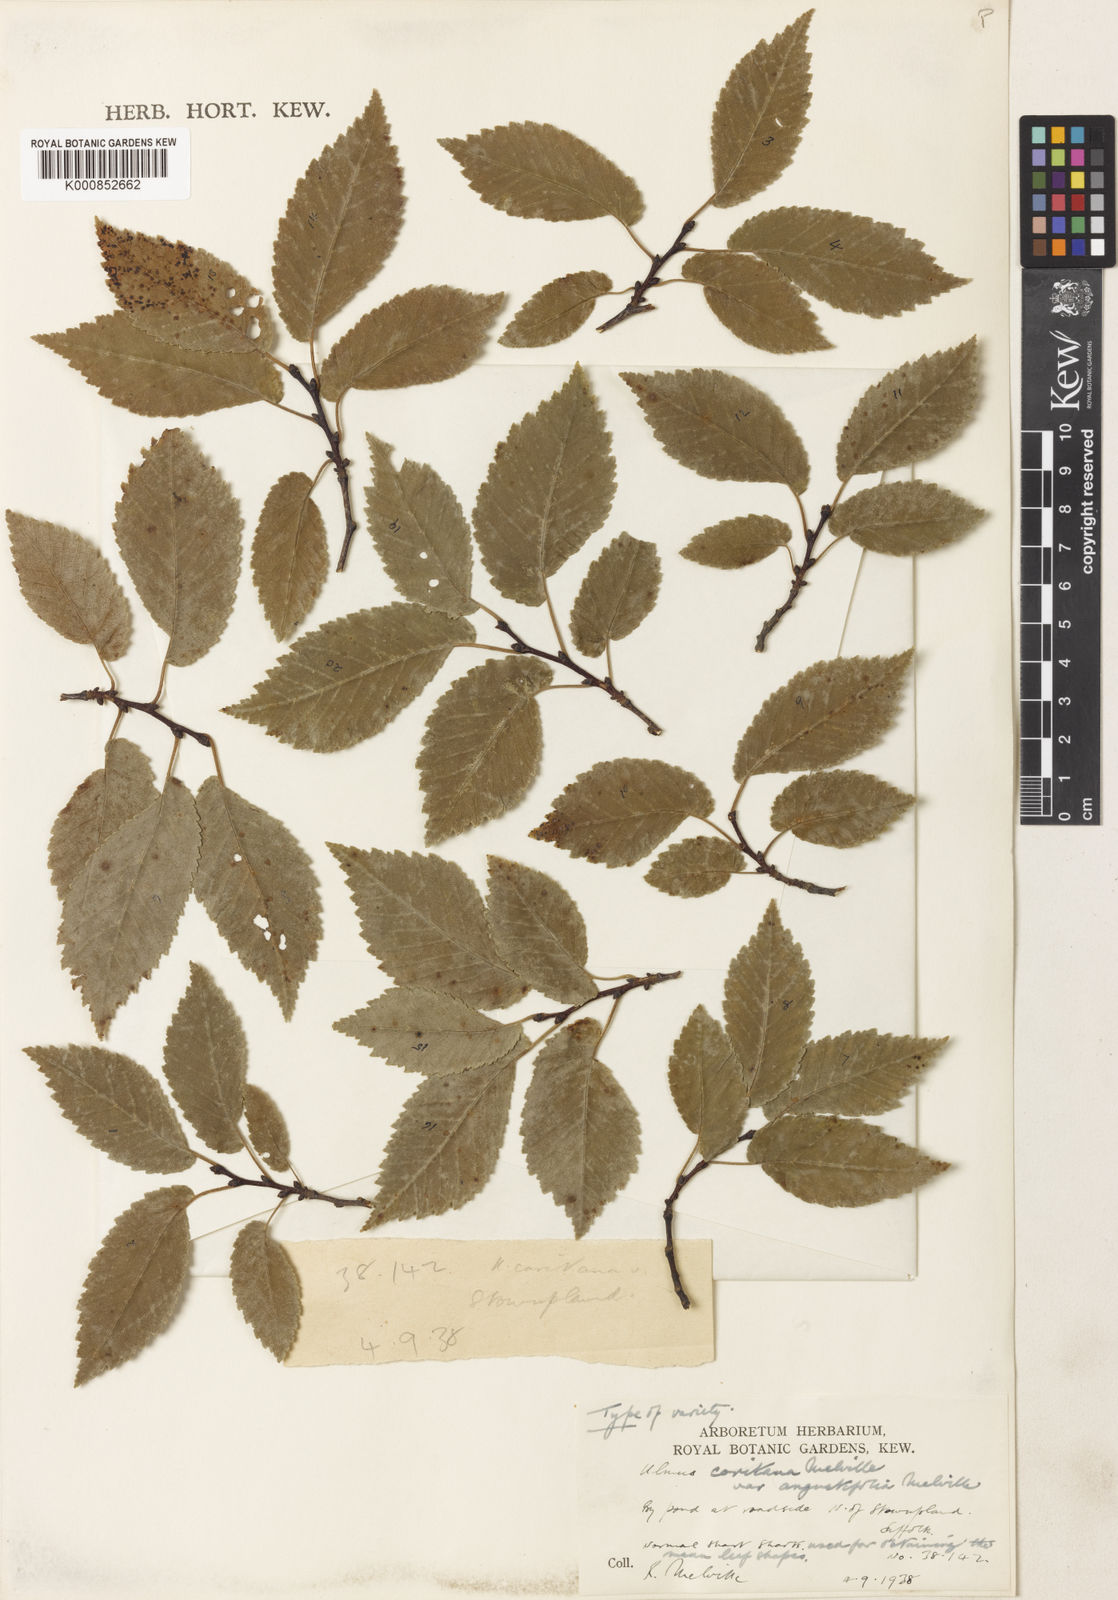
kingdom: Plantae
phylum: Tracheophyta
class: Magnoliopsida
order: Rosales
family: Ulmaceae
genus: Ulmus
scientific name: Ulmus minor
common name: Small-leaved elm
